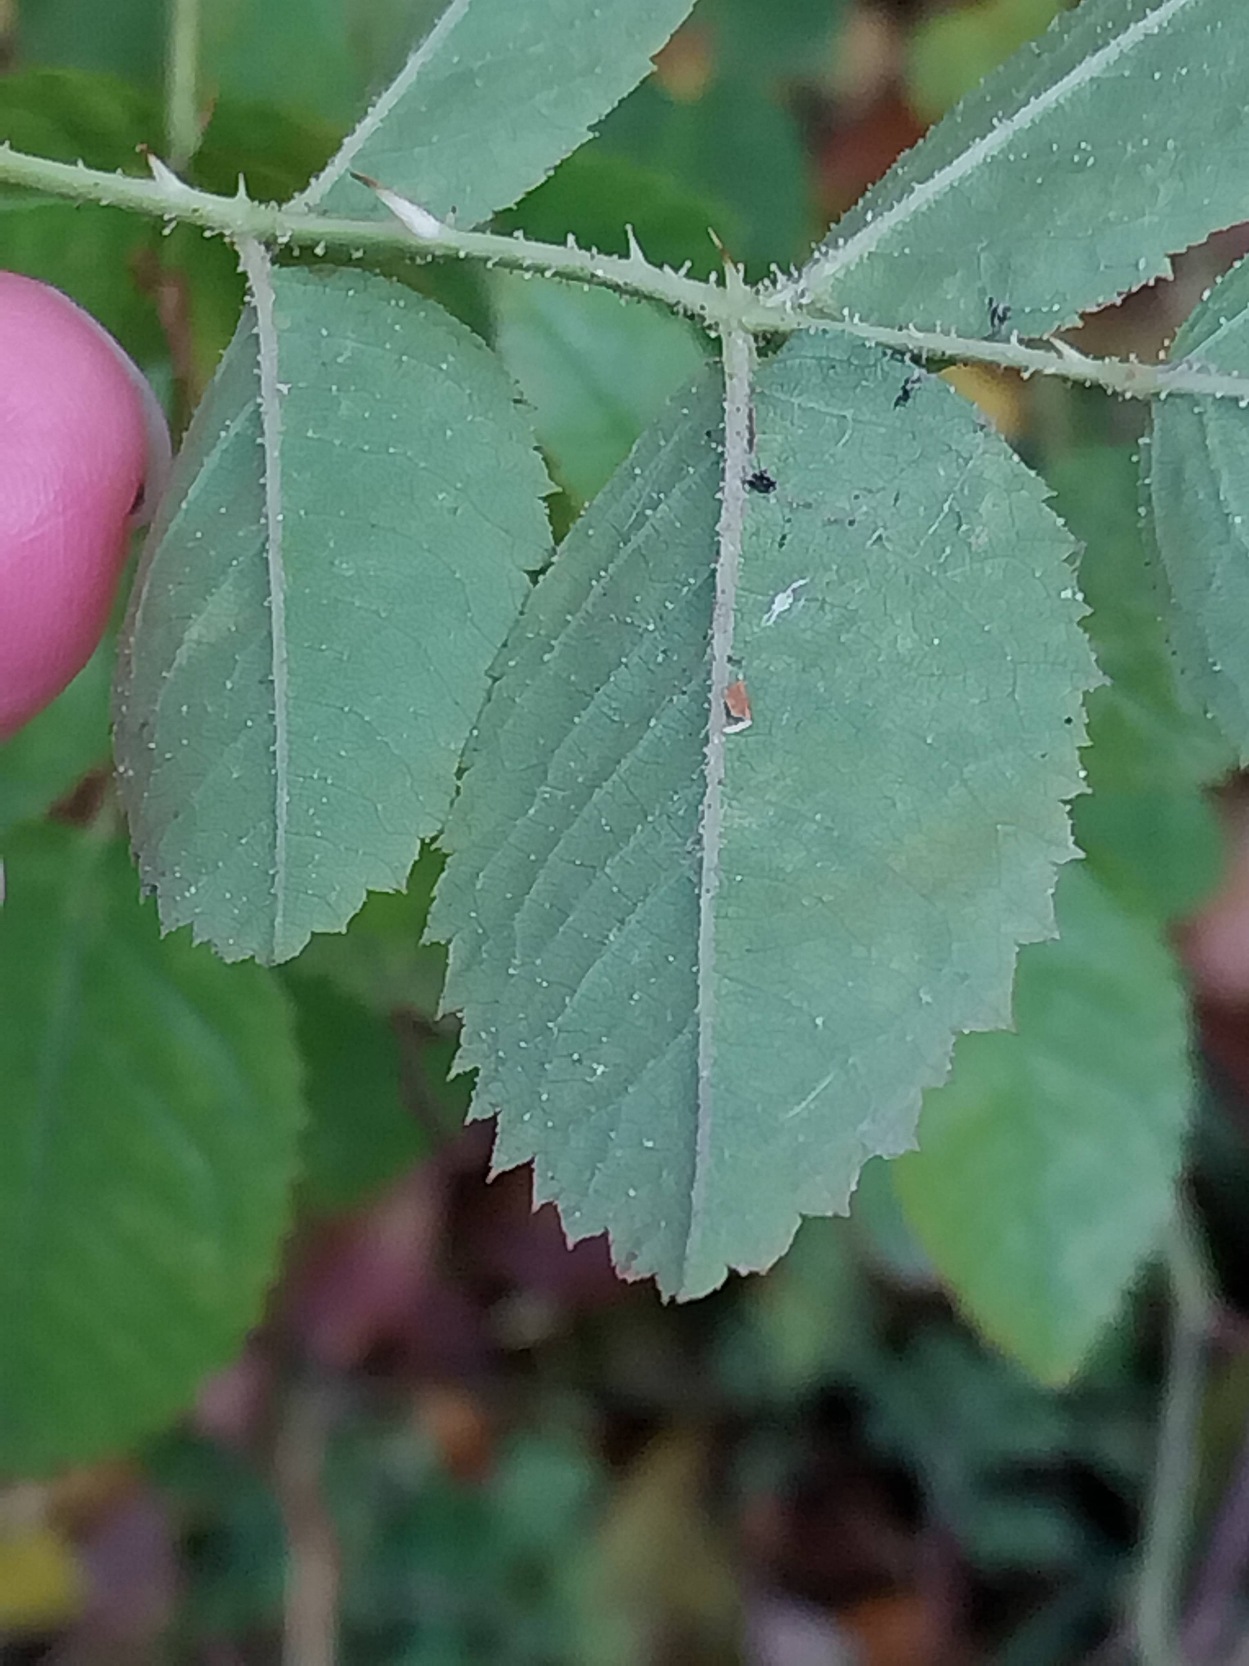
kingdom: Plantae
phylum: Tracheophyta
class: Magnoliopsida
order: Rosales
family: Rosaceae
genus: Rosa
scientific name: Rosa rubiginosa
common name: Æble-rose
